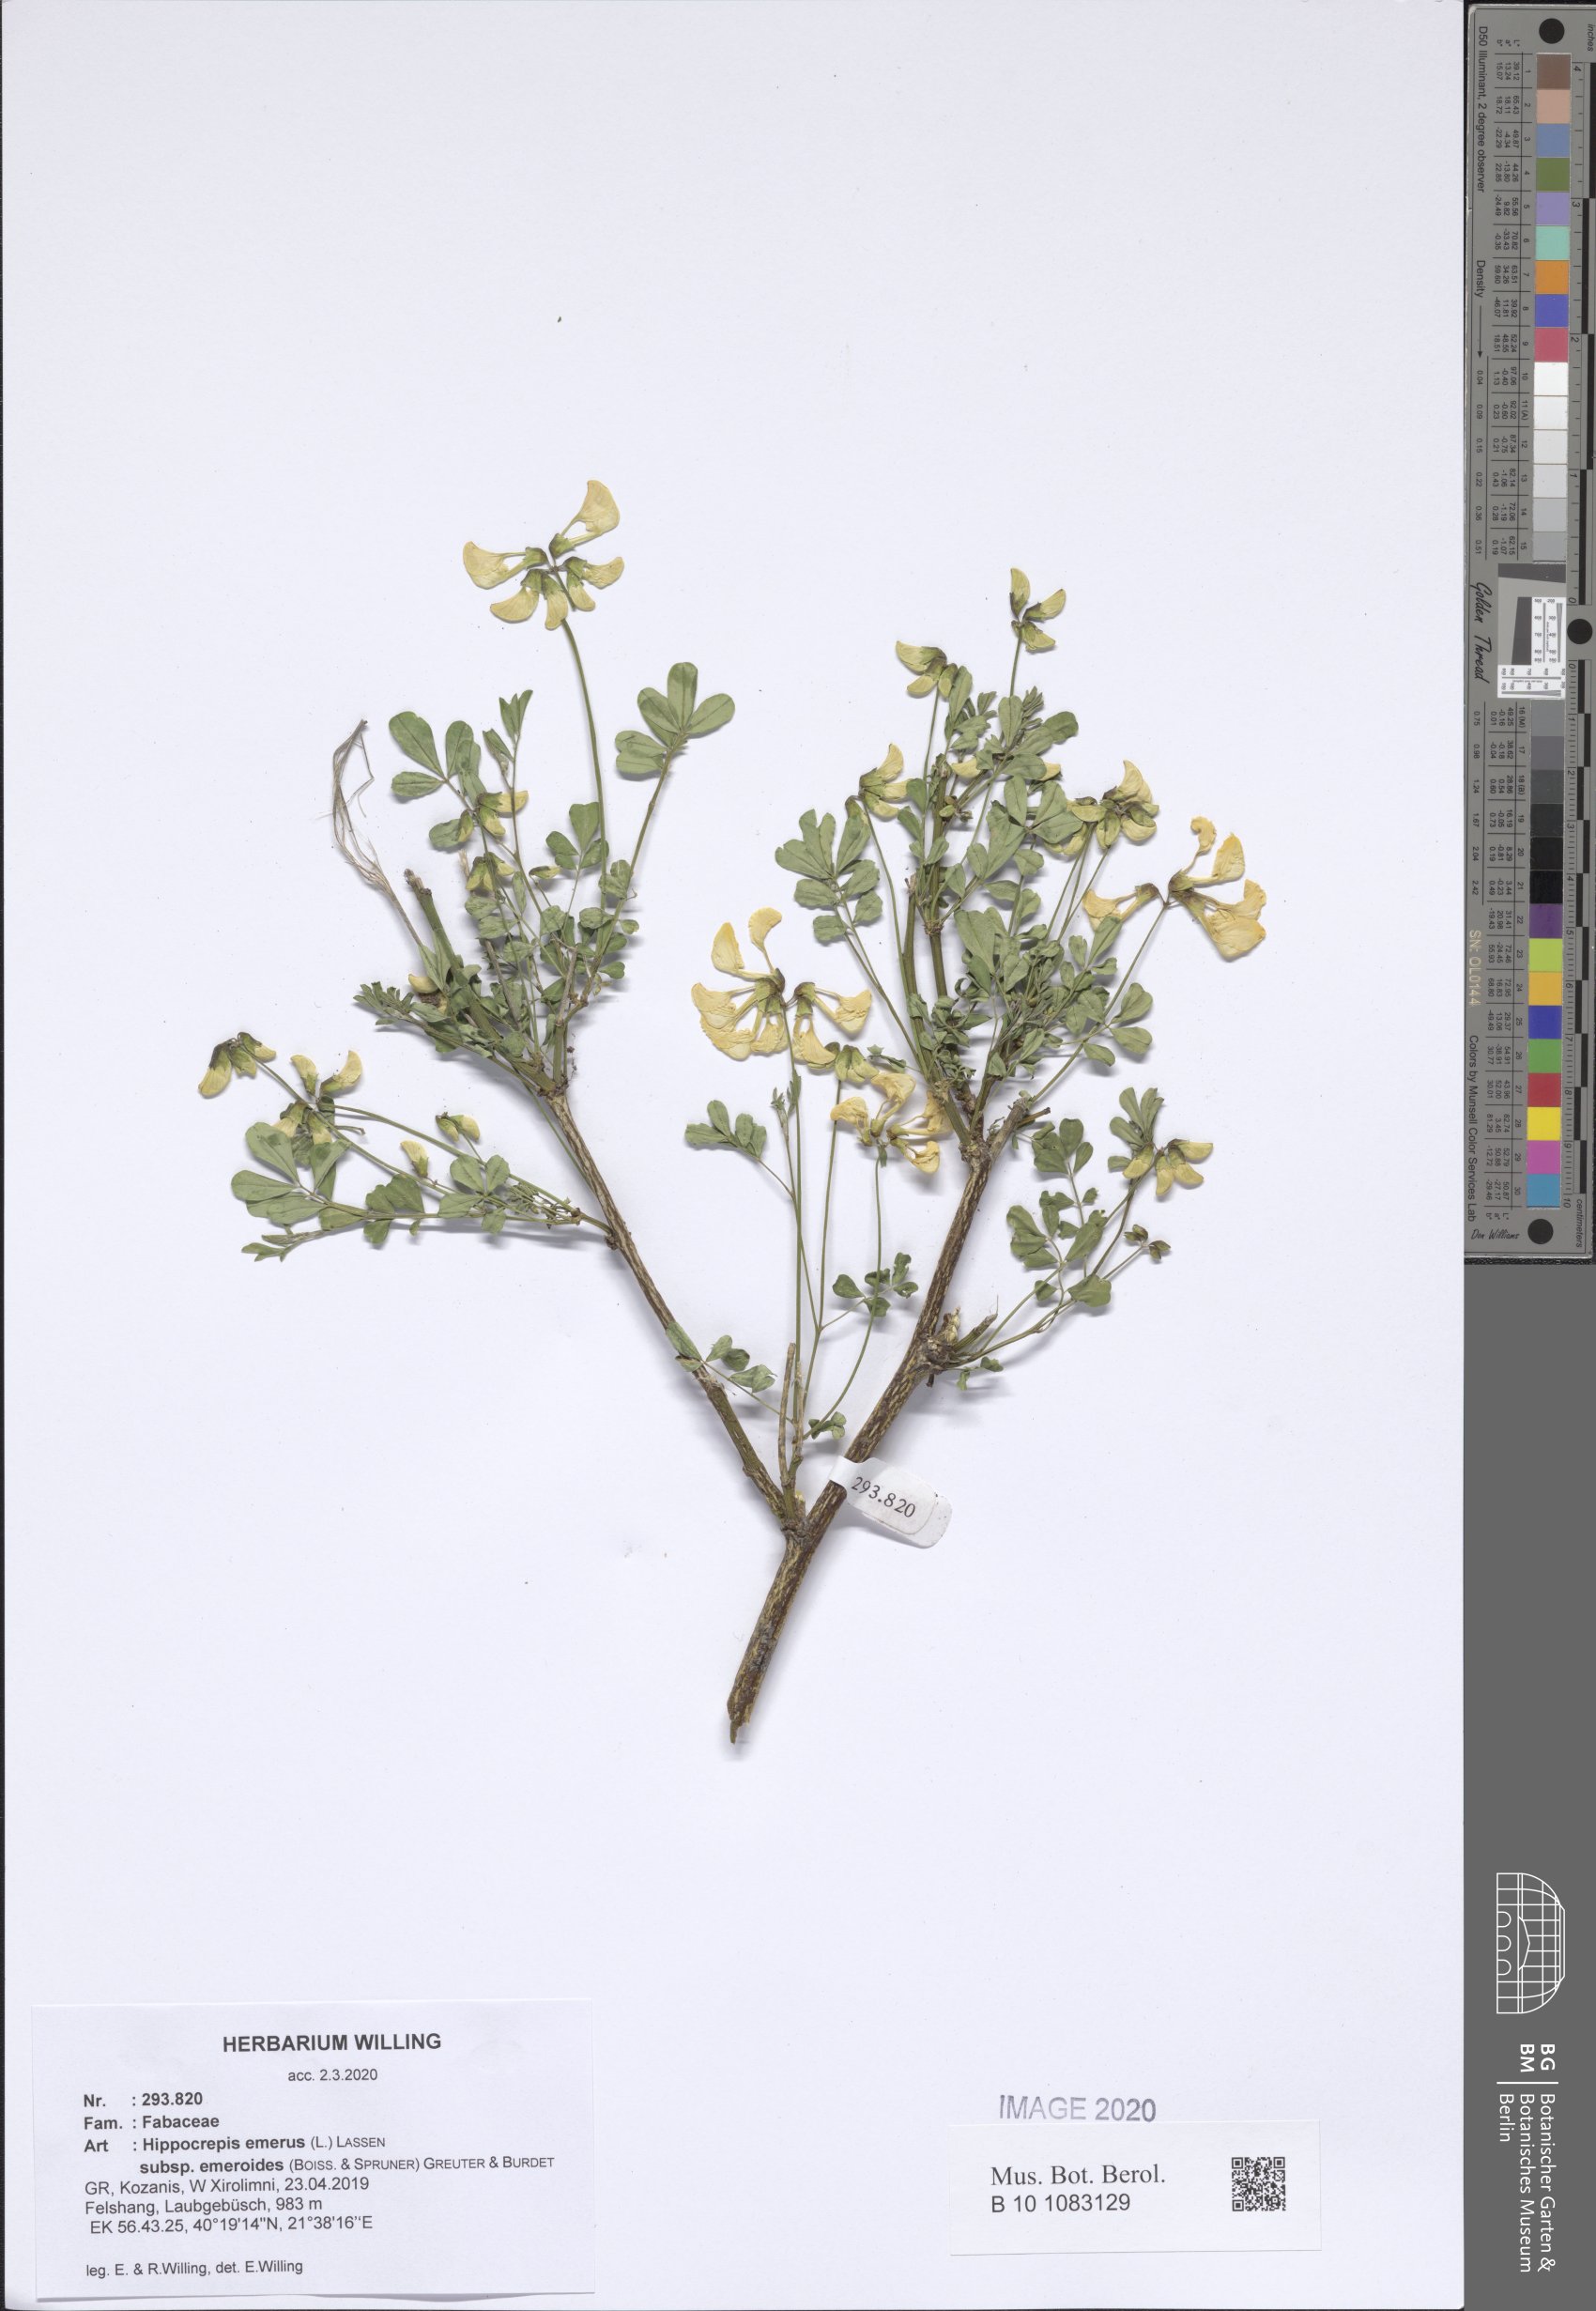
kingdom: Plantae
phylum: Tracheophyta
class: Magnoliopsida
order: Fabales
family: Fabaceae
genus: Hippocrepis
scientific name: Hippocrepis emerus
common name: Scorpion senna
